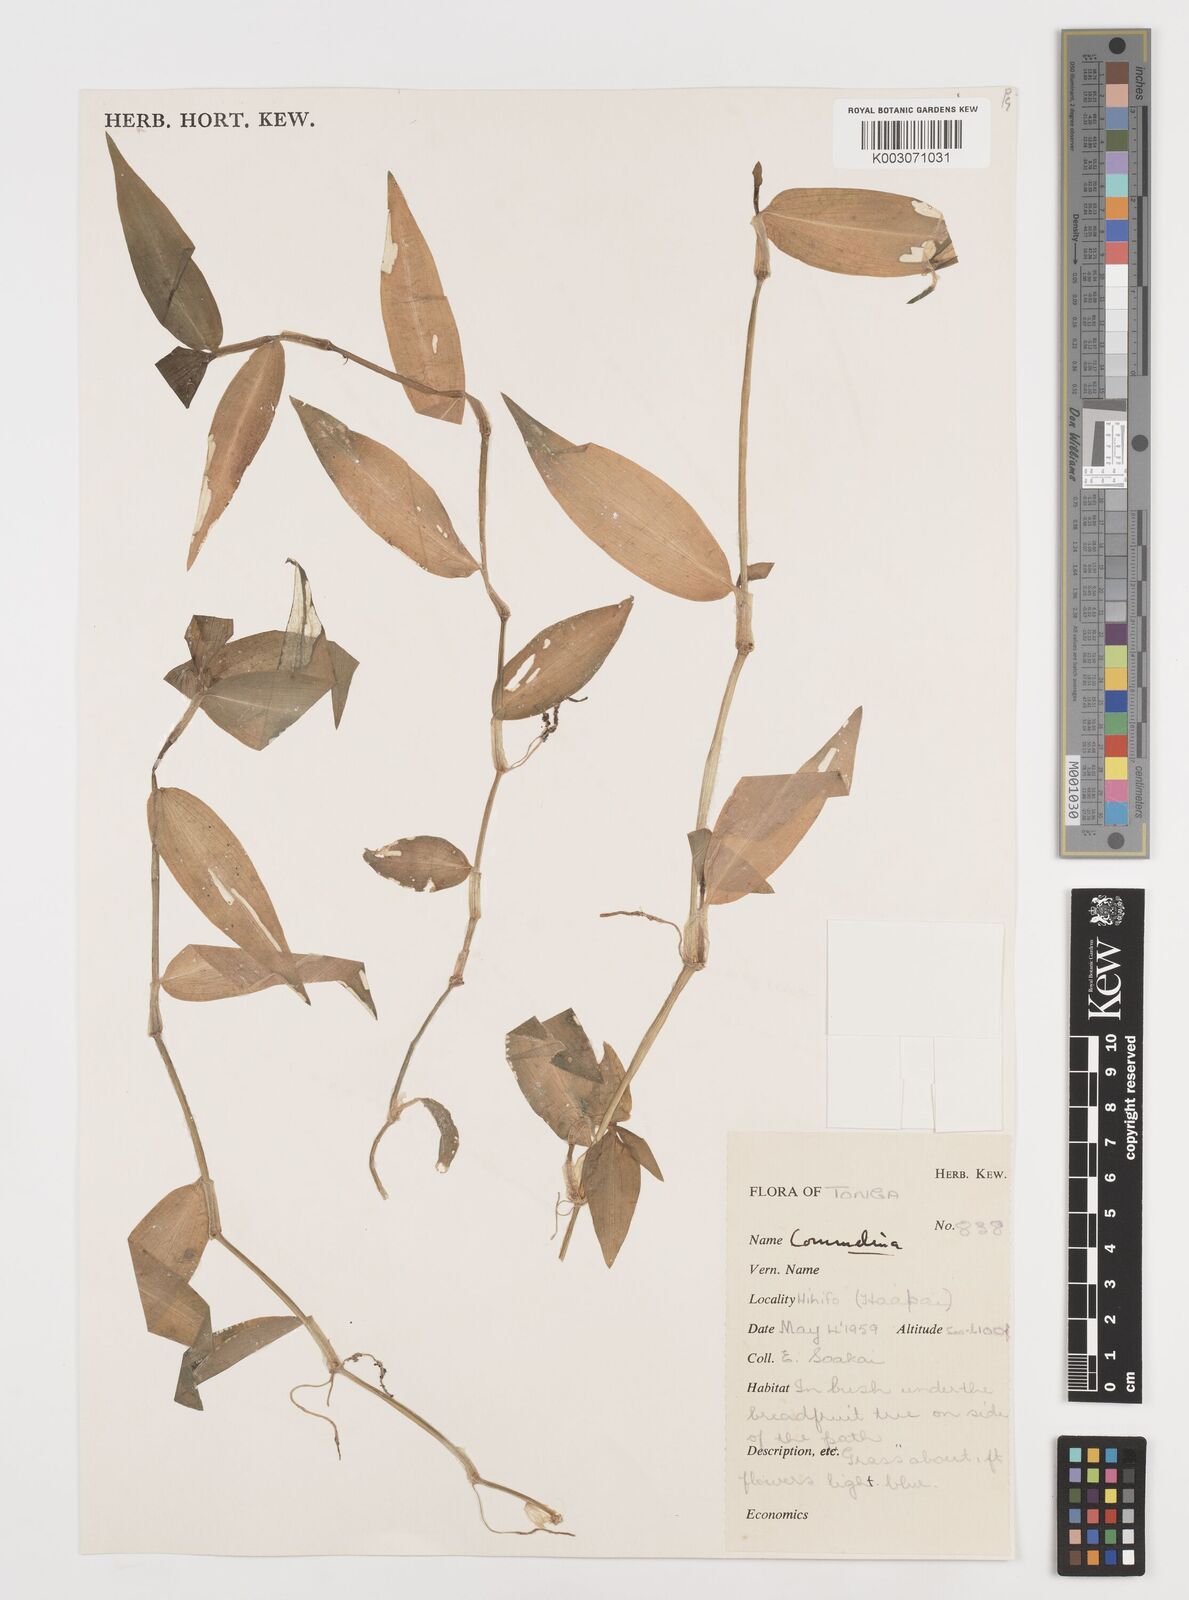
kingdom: Plantae
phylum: Tracheophyta
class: Liliopsida
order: Commelinales
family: Commelinaceae
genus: Commelina
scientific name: Commelina
